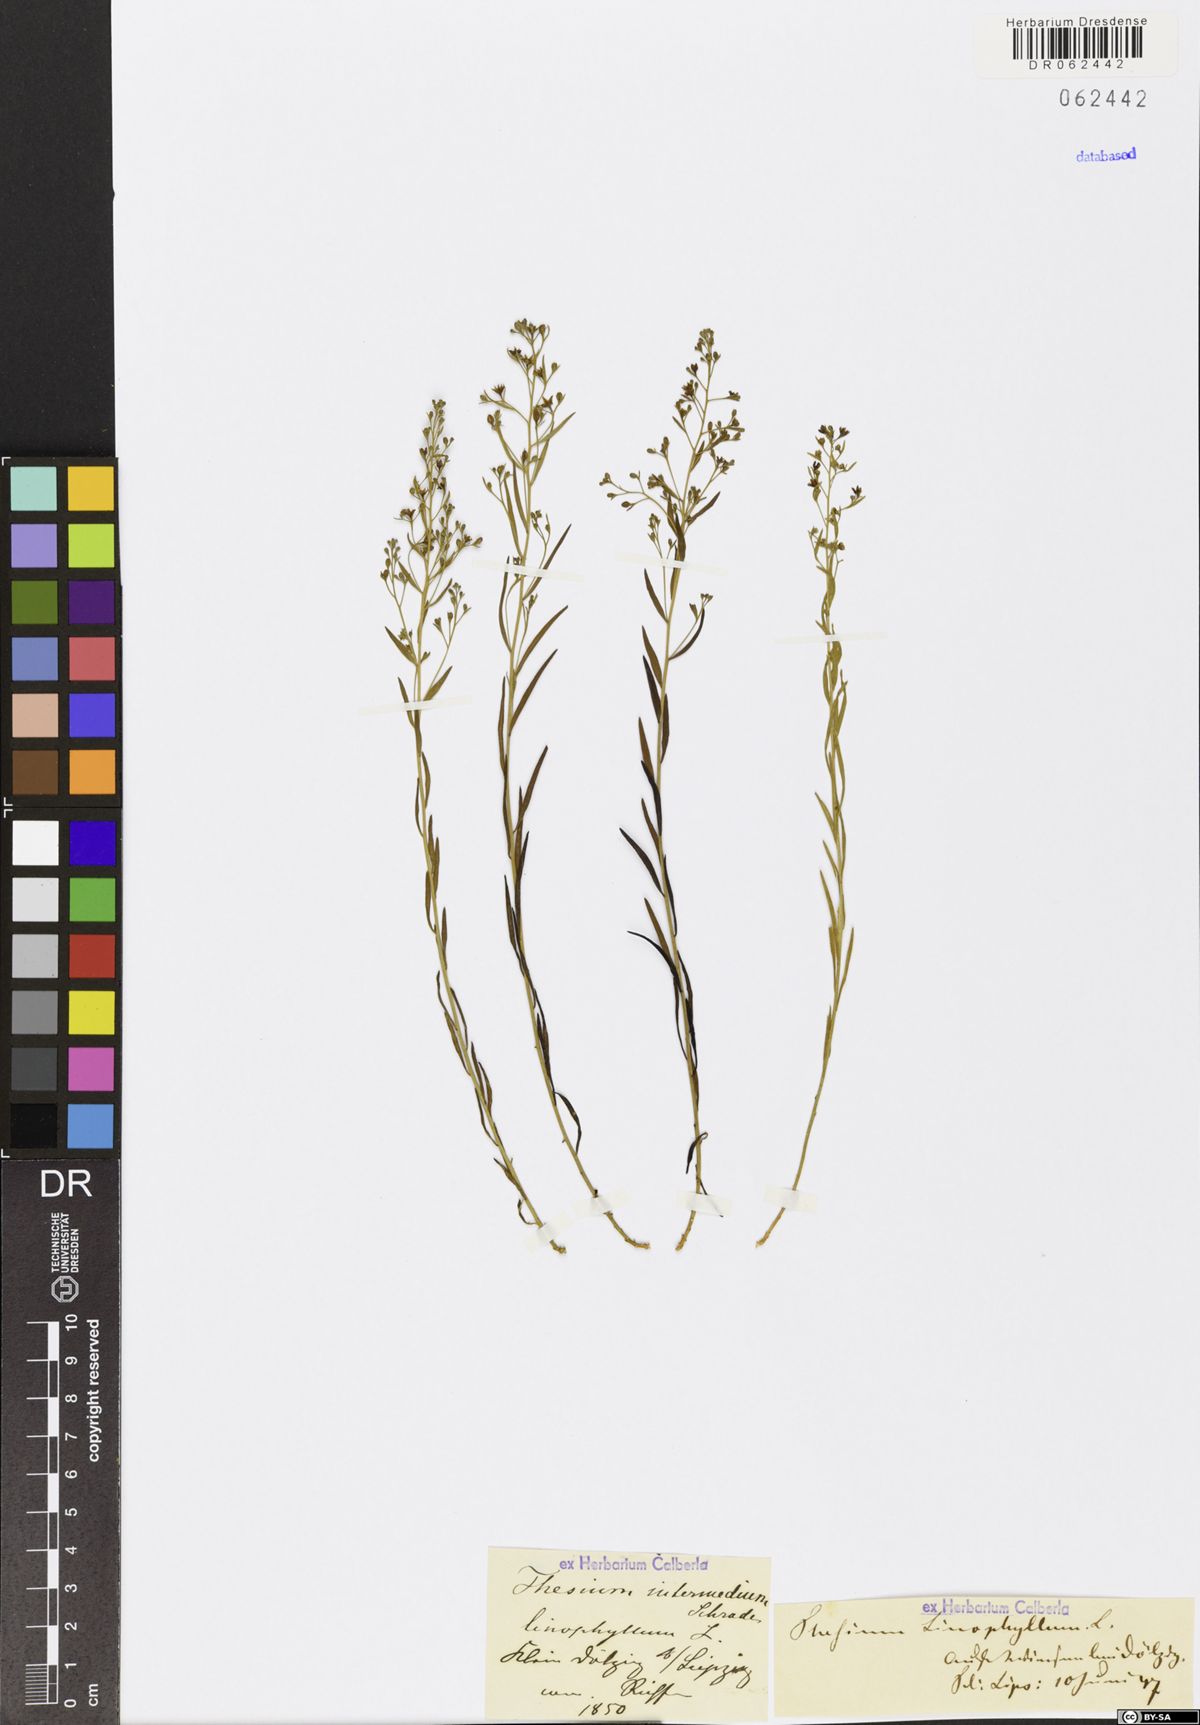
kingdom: Plantae
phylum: Tracheophyta
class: Magnoliopsida
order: Santalales
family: Thesiaceae
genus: Thesium
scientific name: Thesium linophyllon
